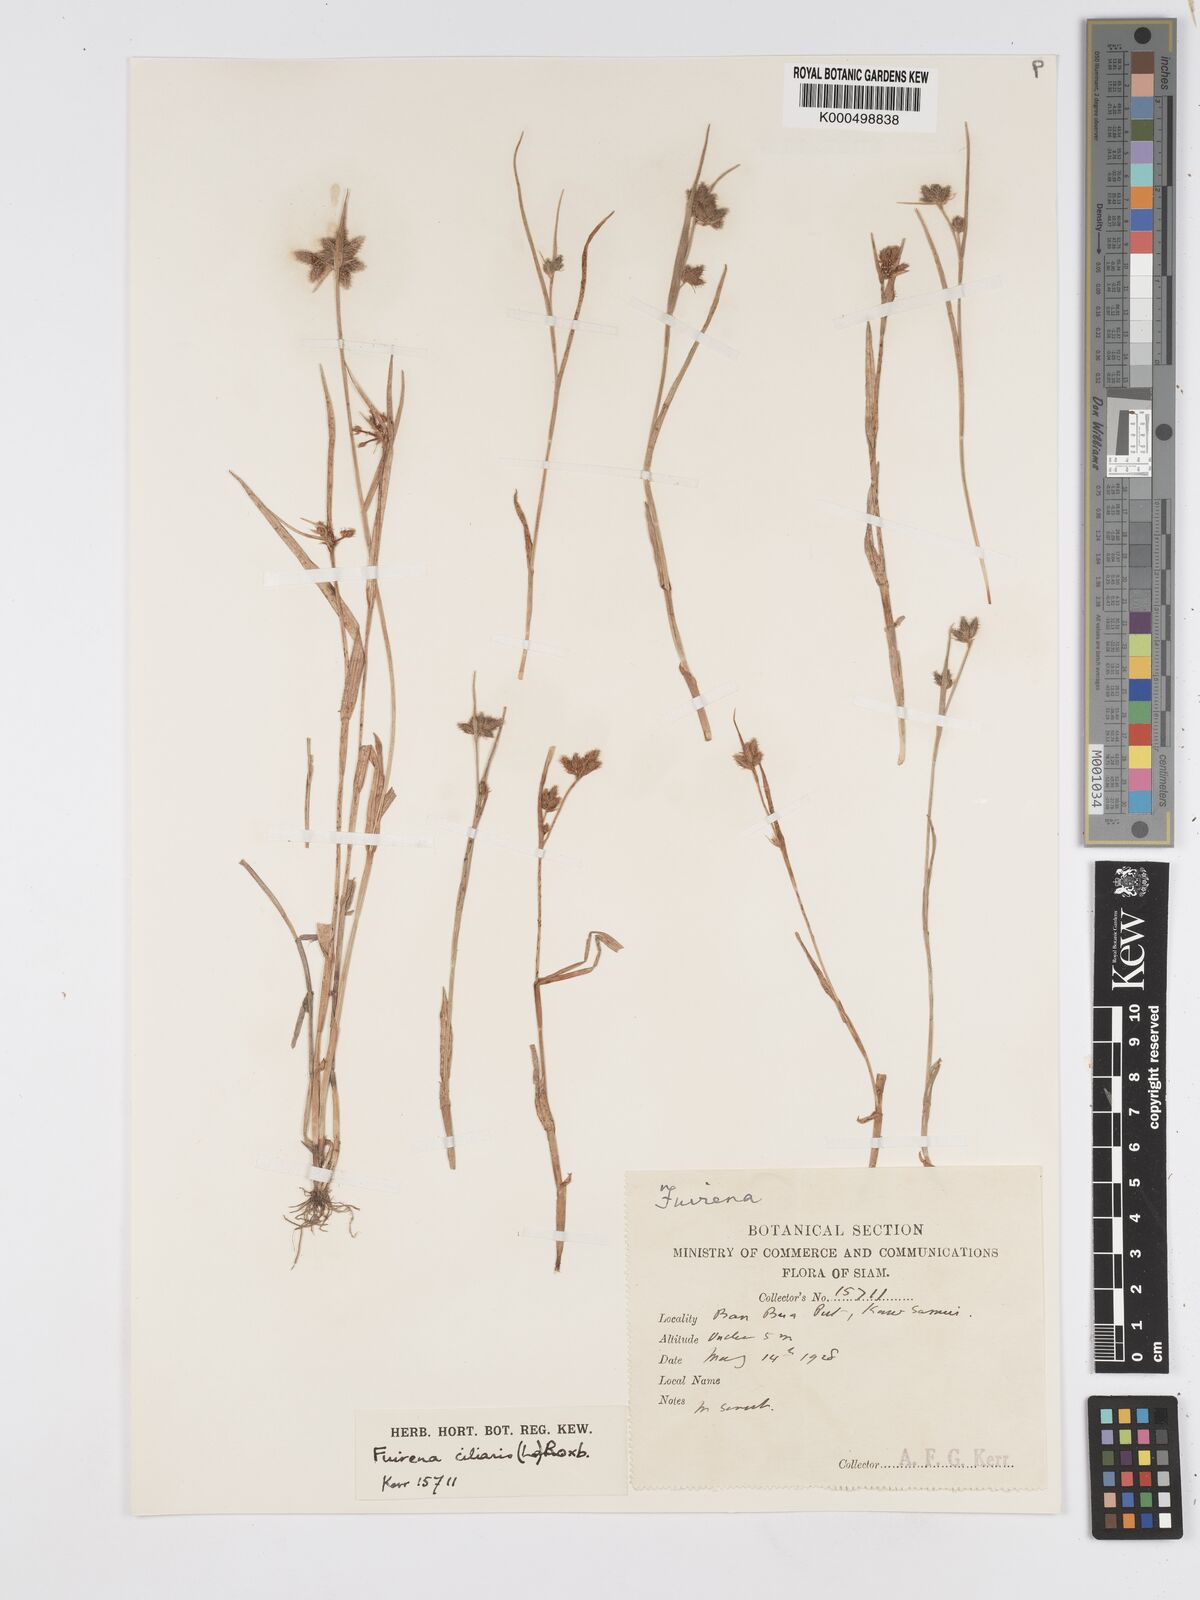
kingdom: Plantae
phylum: Tracheophyta
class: Liliopsida
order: Poales
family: Cyperaceae
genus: Fuirena
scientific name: Fuirena ciliaris
